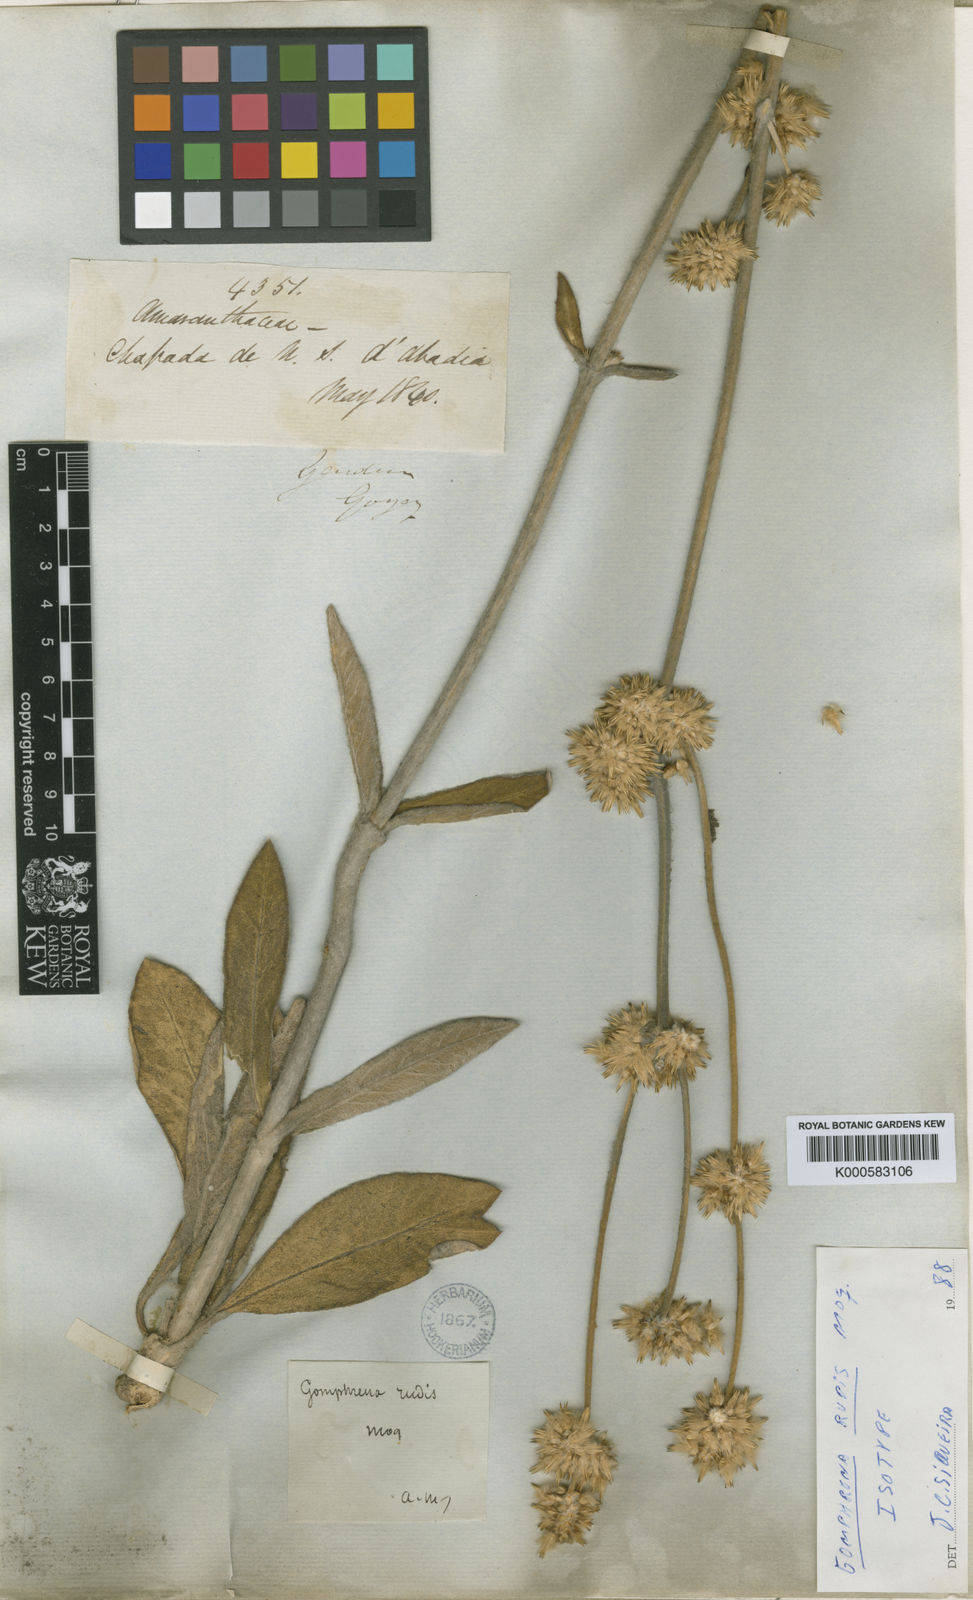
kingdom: Plantae
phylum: Tracheophyta
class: Magnoliopsida
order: Caryophyllales
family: Amaranthaceae
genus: Gomphrena
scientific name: Gomphrena rudis
